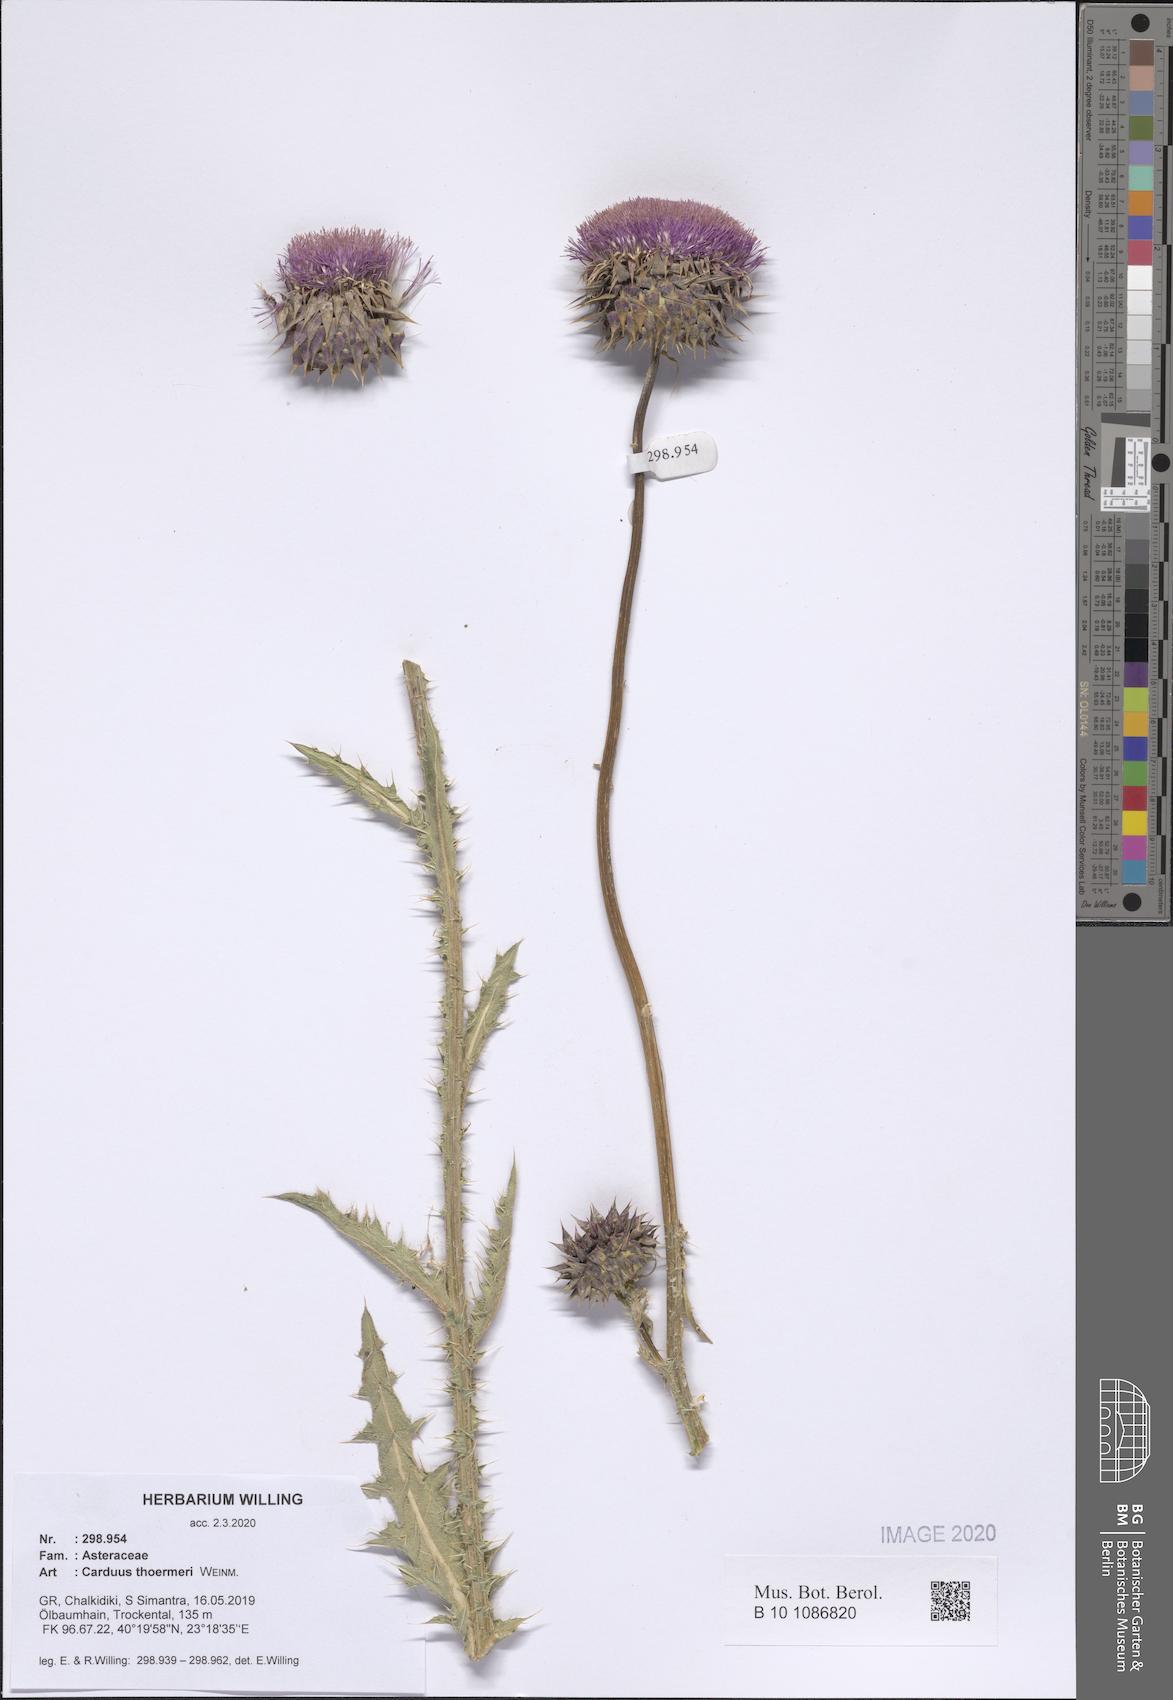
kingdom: Plantae
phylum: Tracheophyta
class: Magnoliopsida
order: Asterales
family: Asteraceae
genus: Carduus
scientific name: Carduus nutans
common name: Musk thistle
